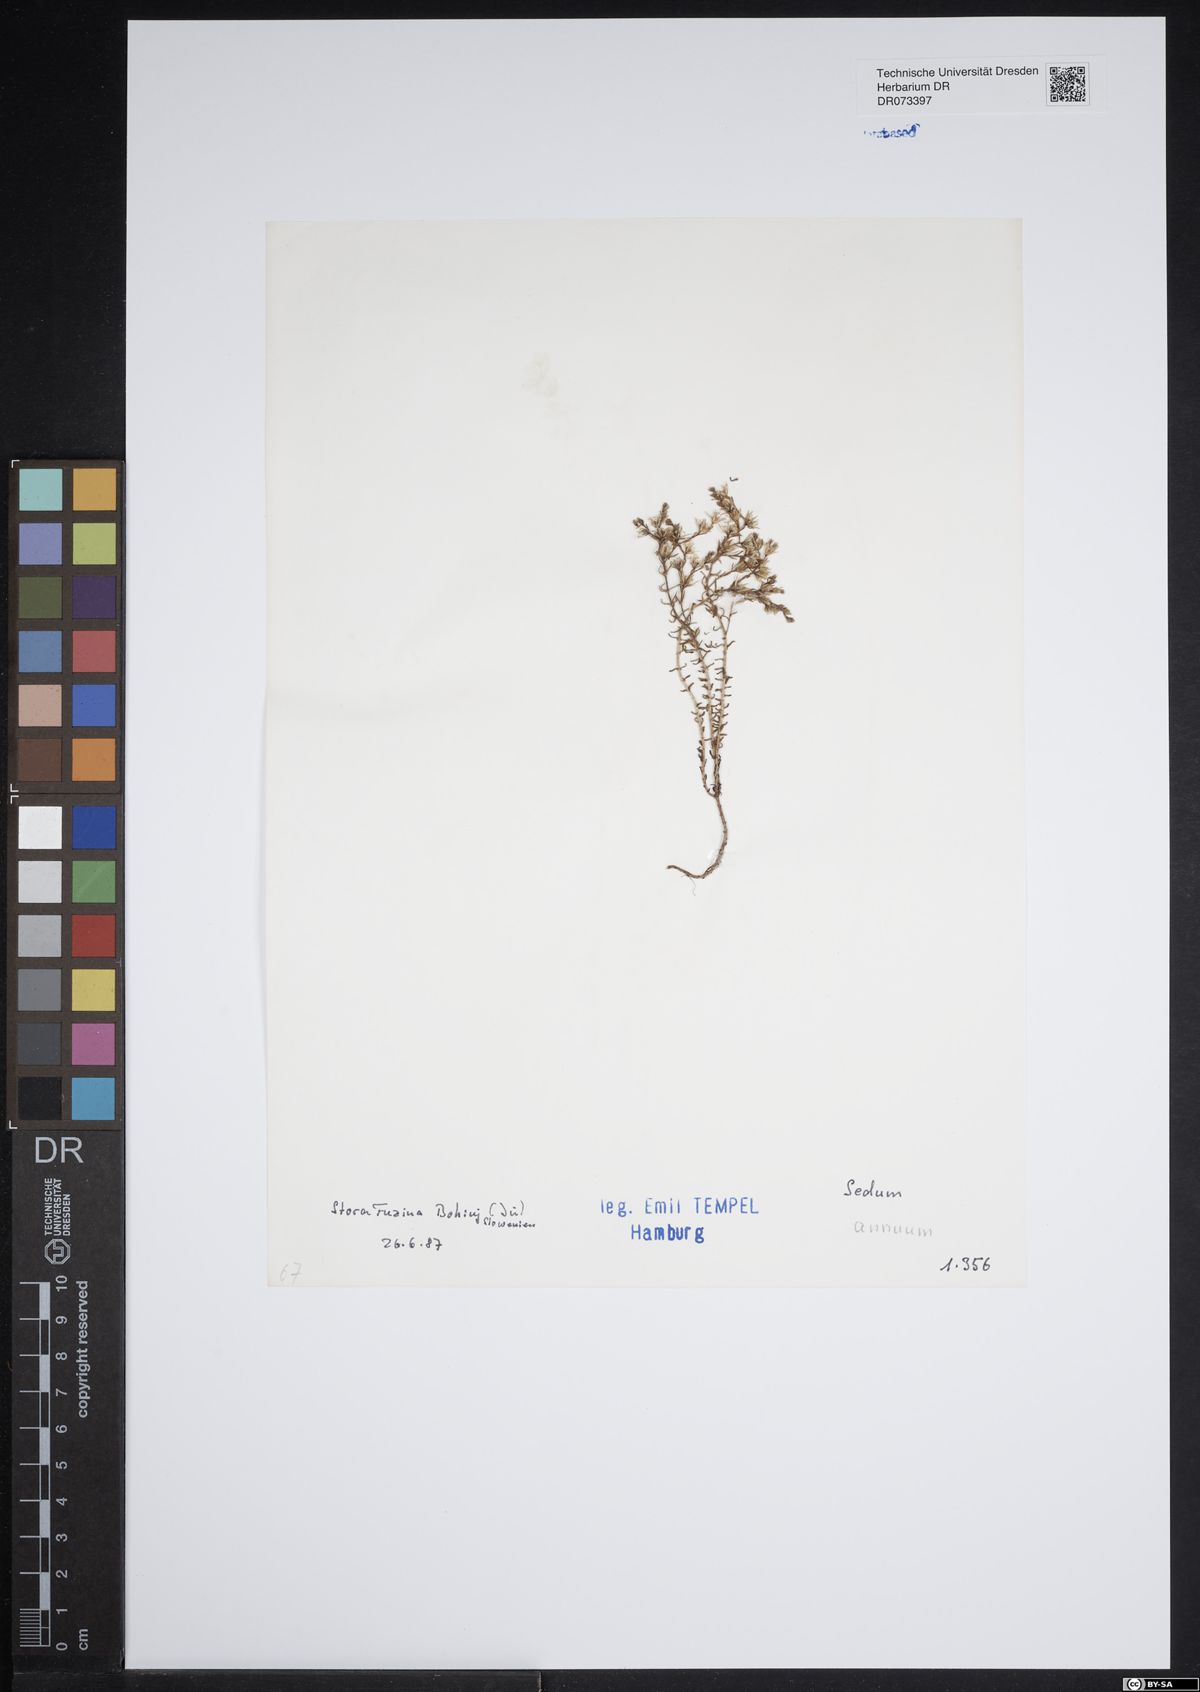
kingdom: Plantae
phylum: Tracheophyta
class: Magnoliopsida
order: Saxifragales
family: Crassulaceae
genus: Sedum
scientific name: Sedum annuum
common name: Annual stonecrop
